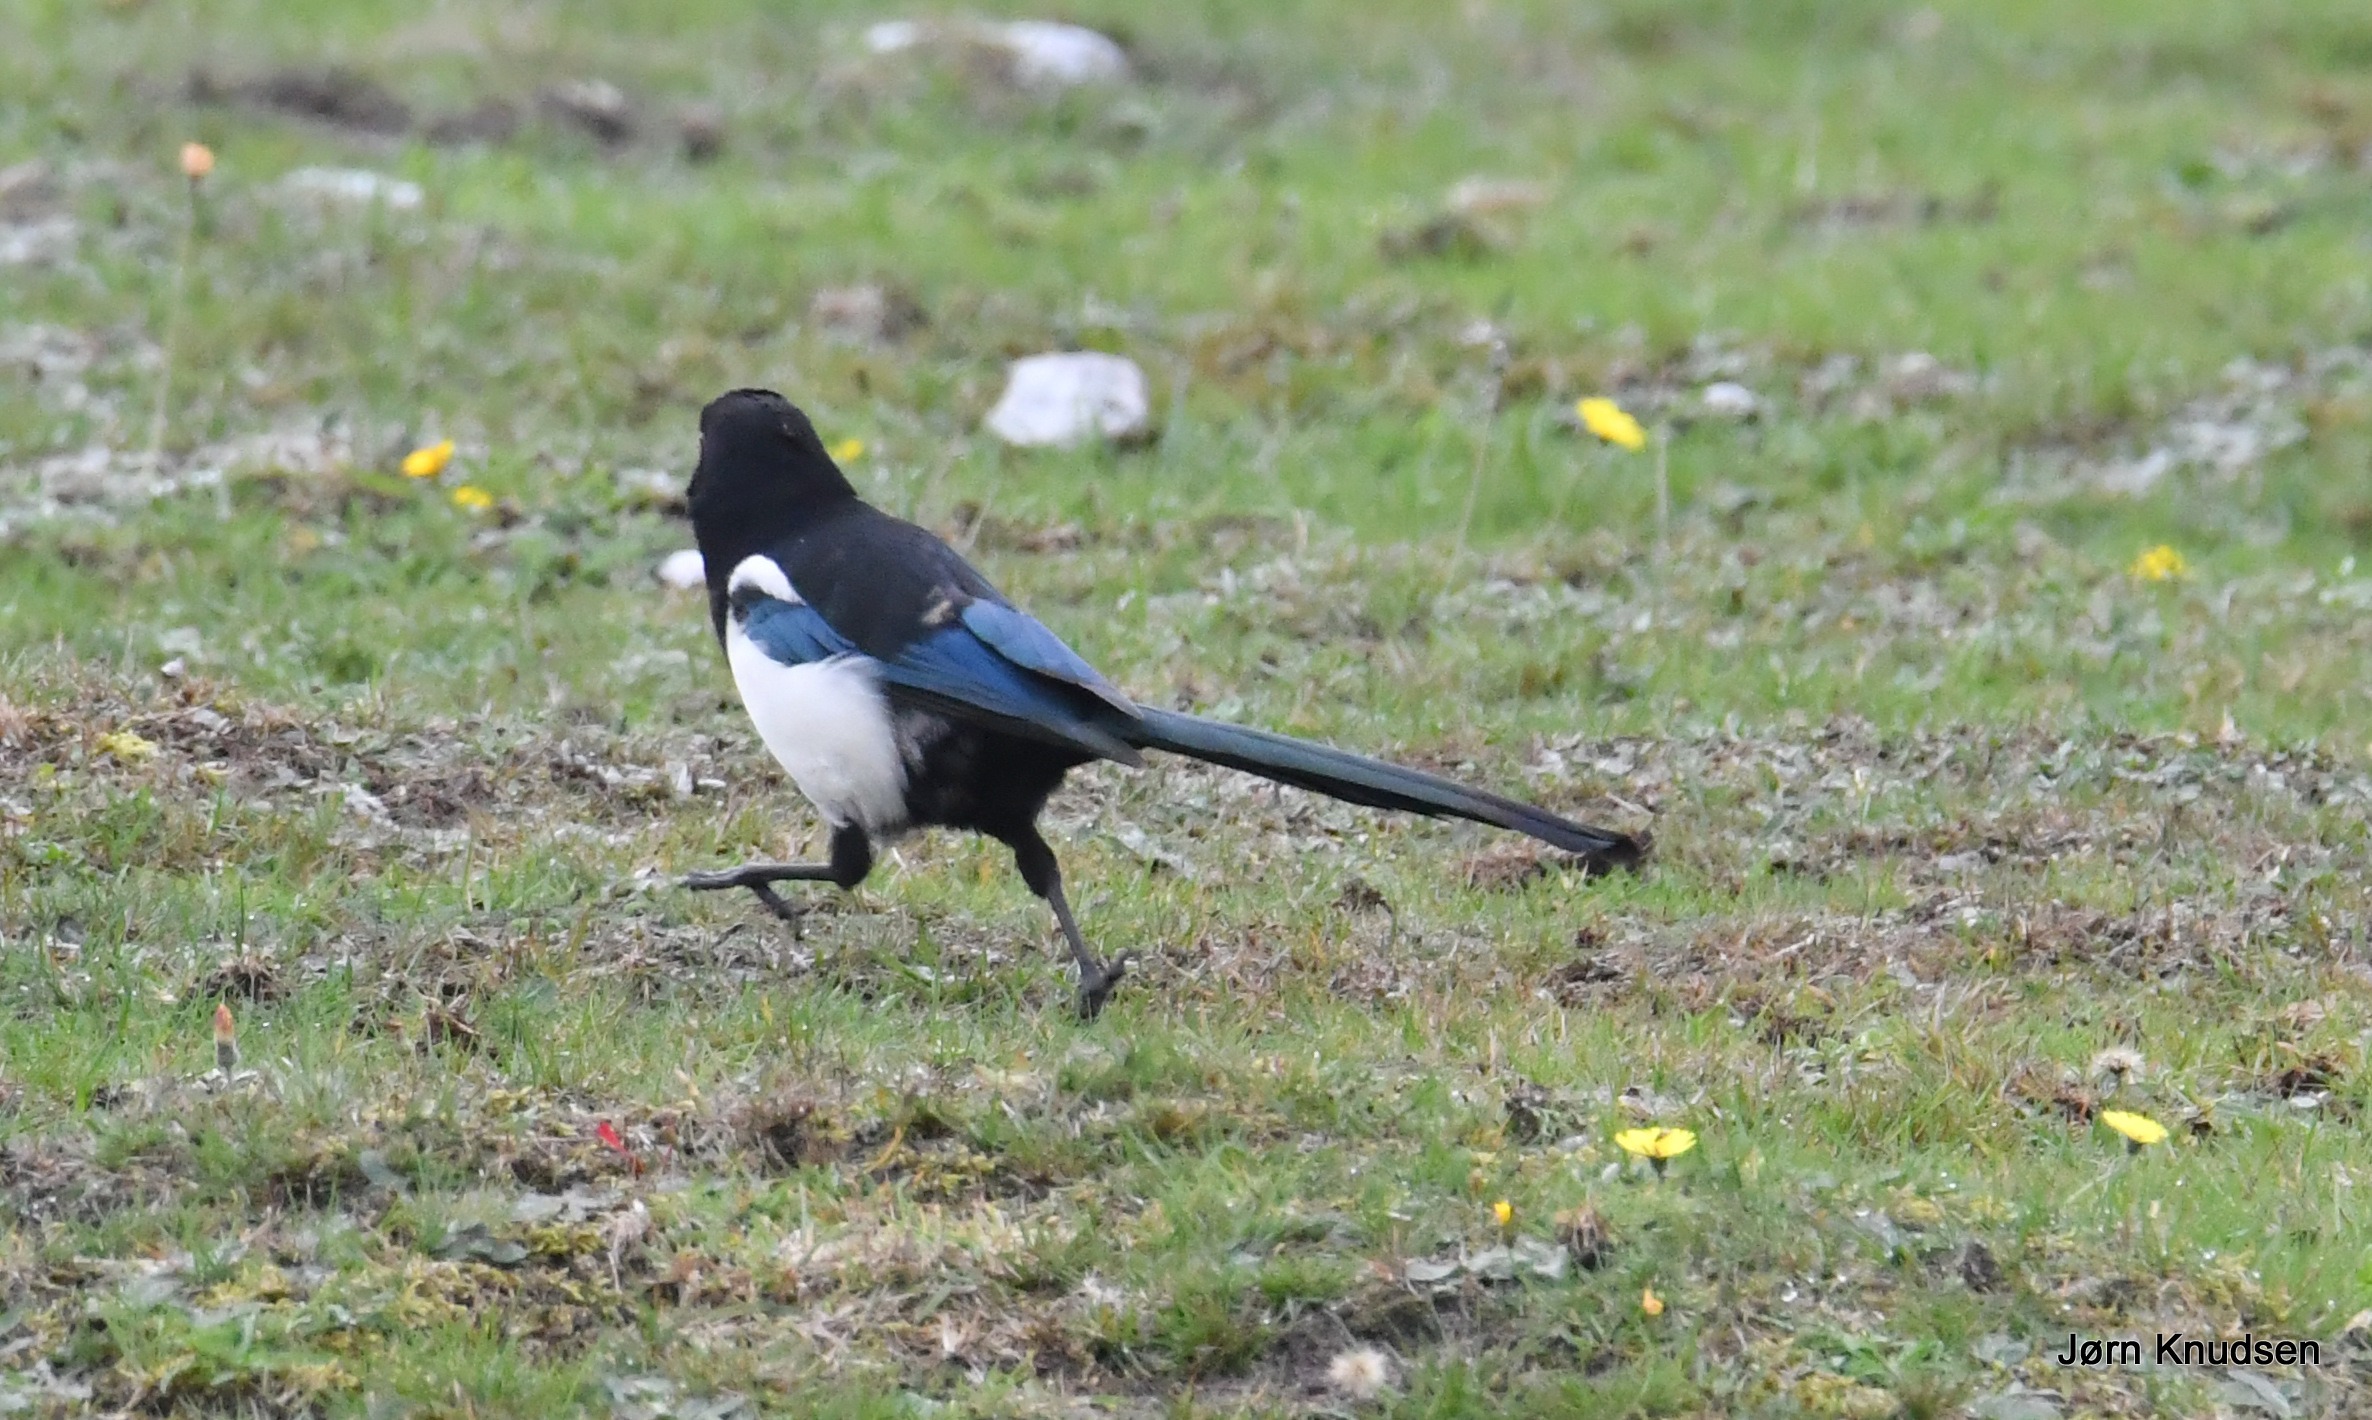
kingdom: Animalia
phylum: Chordata
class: Aves
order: Passeriformes
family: Corvidae
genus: Pica
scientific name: Pica pica
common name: Husskade
